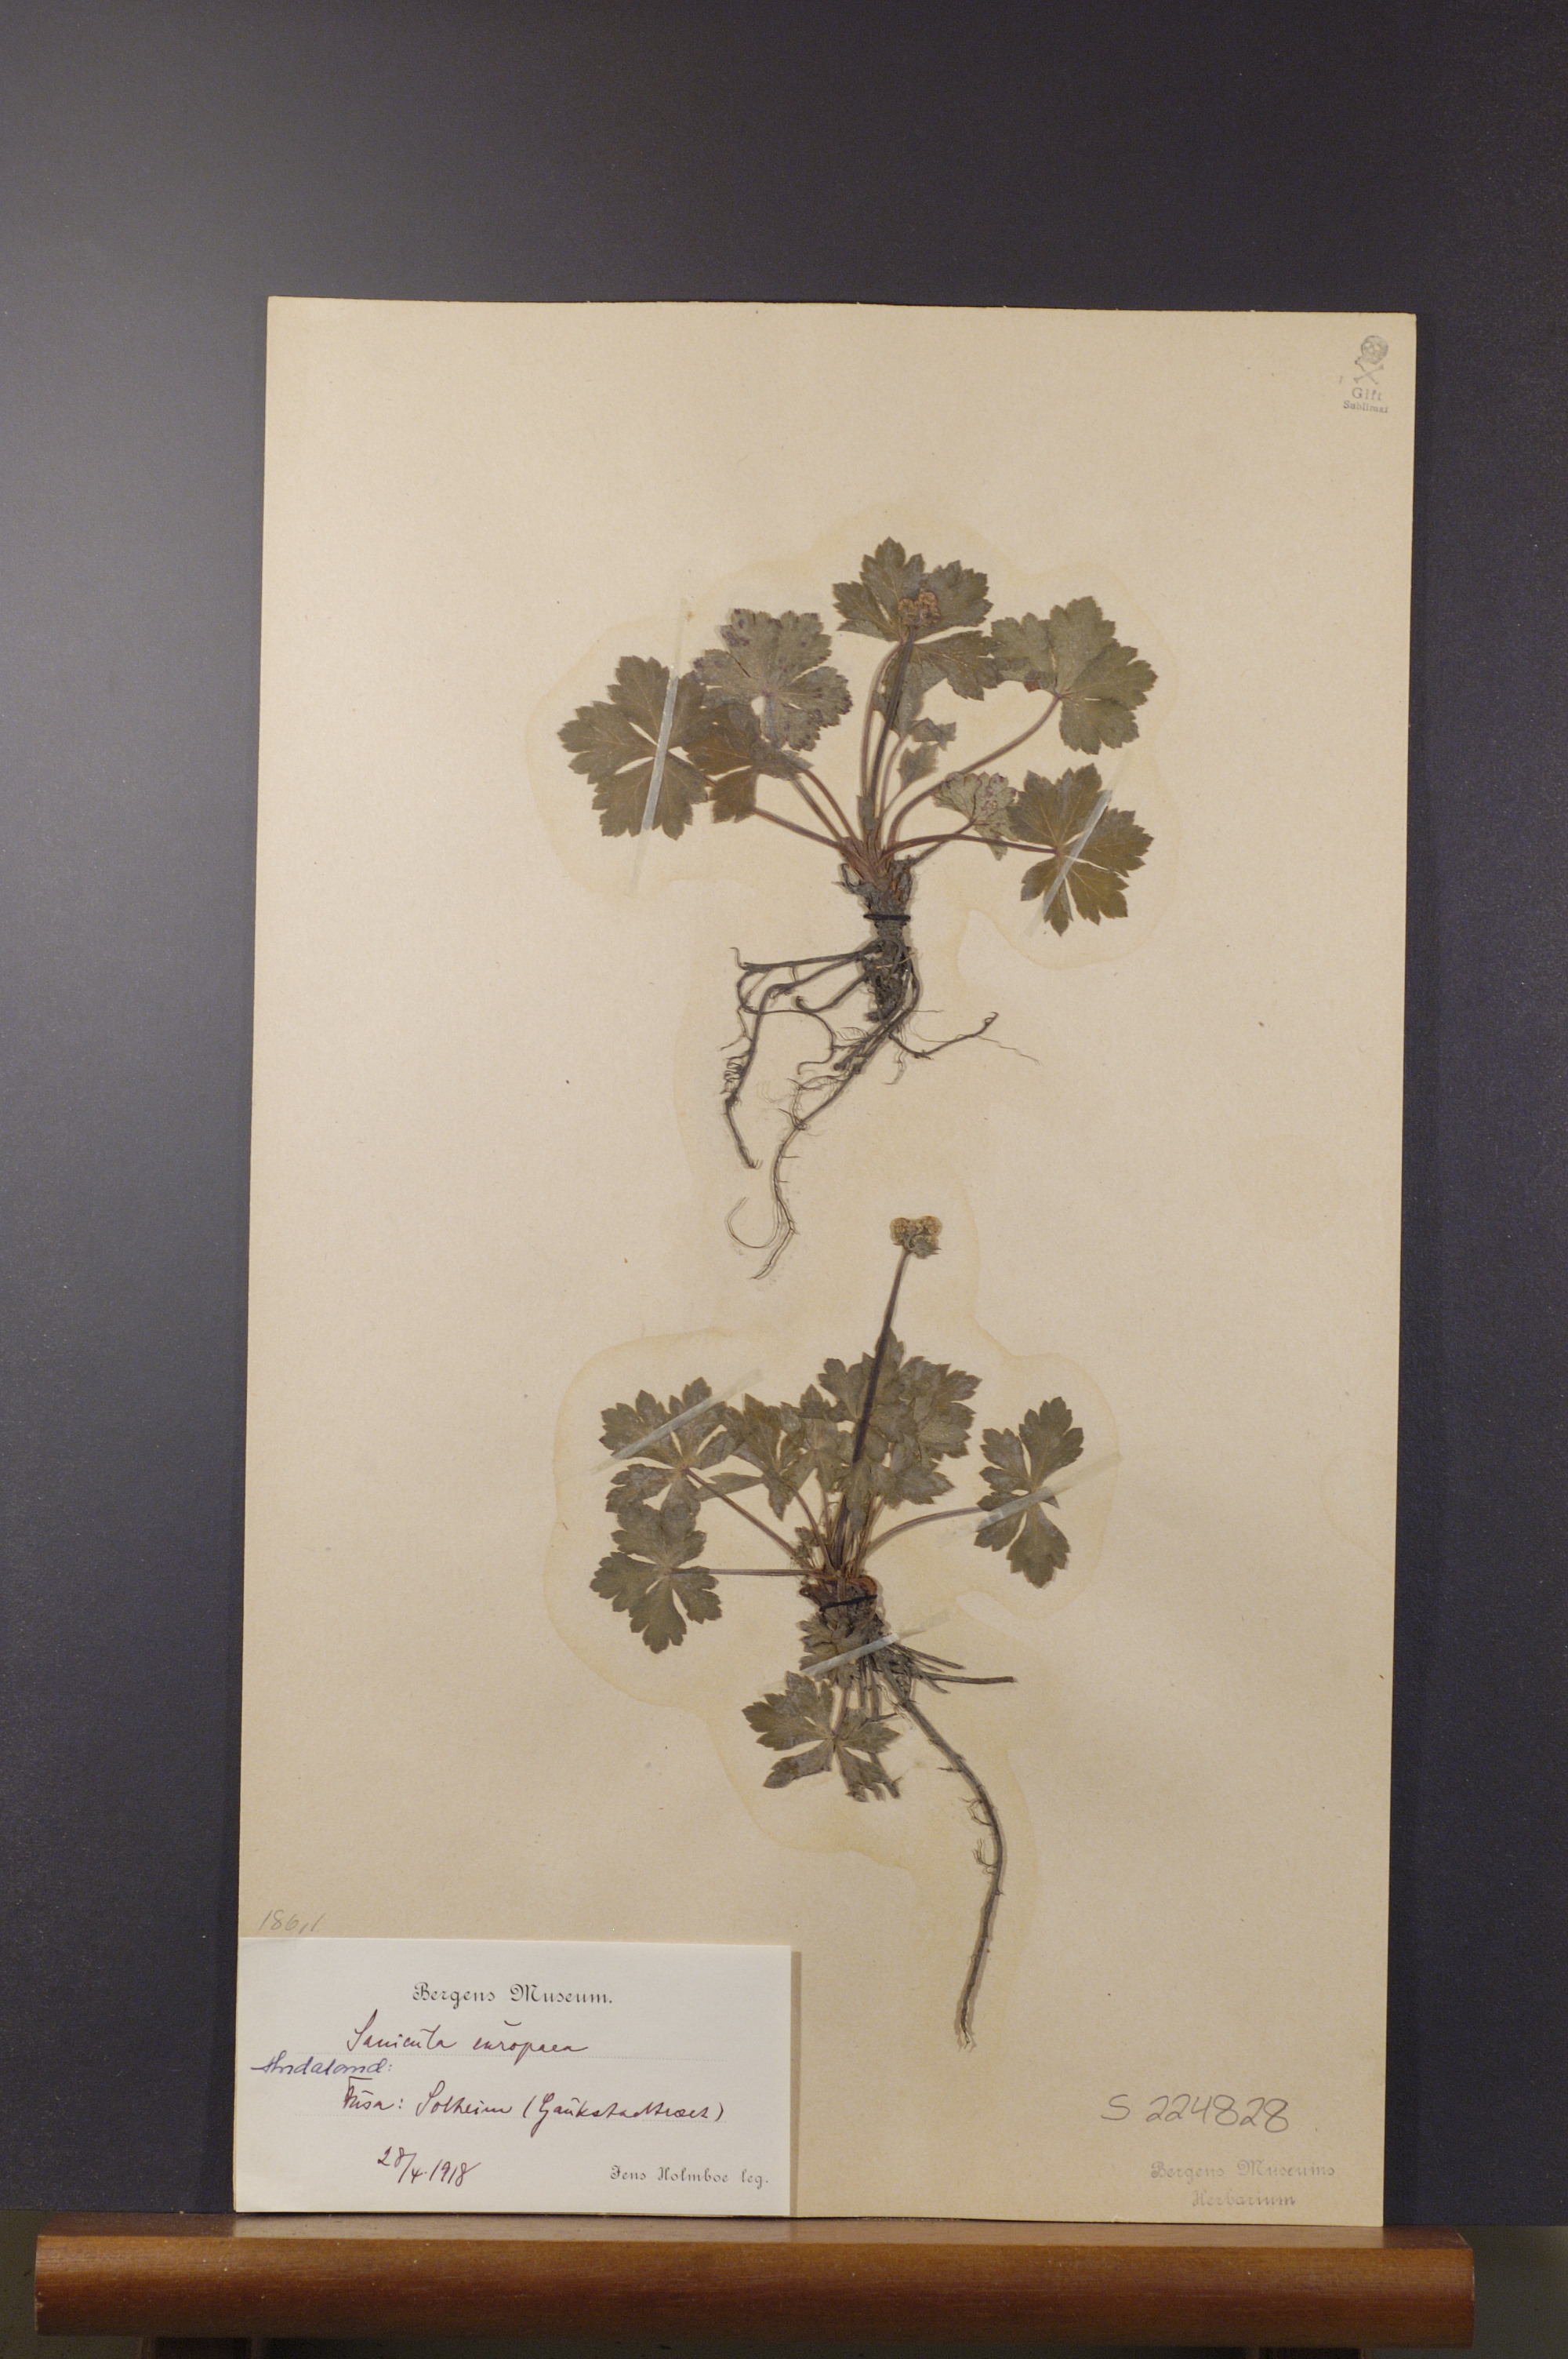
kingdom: Plantae
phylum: Tracheophyta
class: Magnoliopsida
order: Apiales
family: Apiaceae
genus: Sanicula
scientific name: Sanicula europaea
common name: Sanicle
